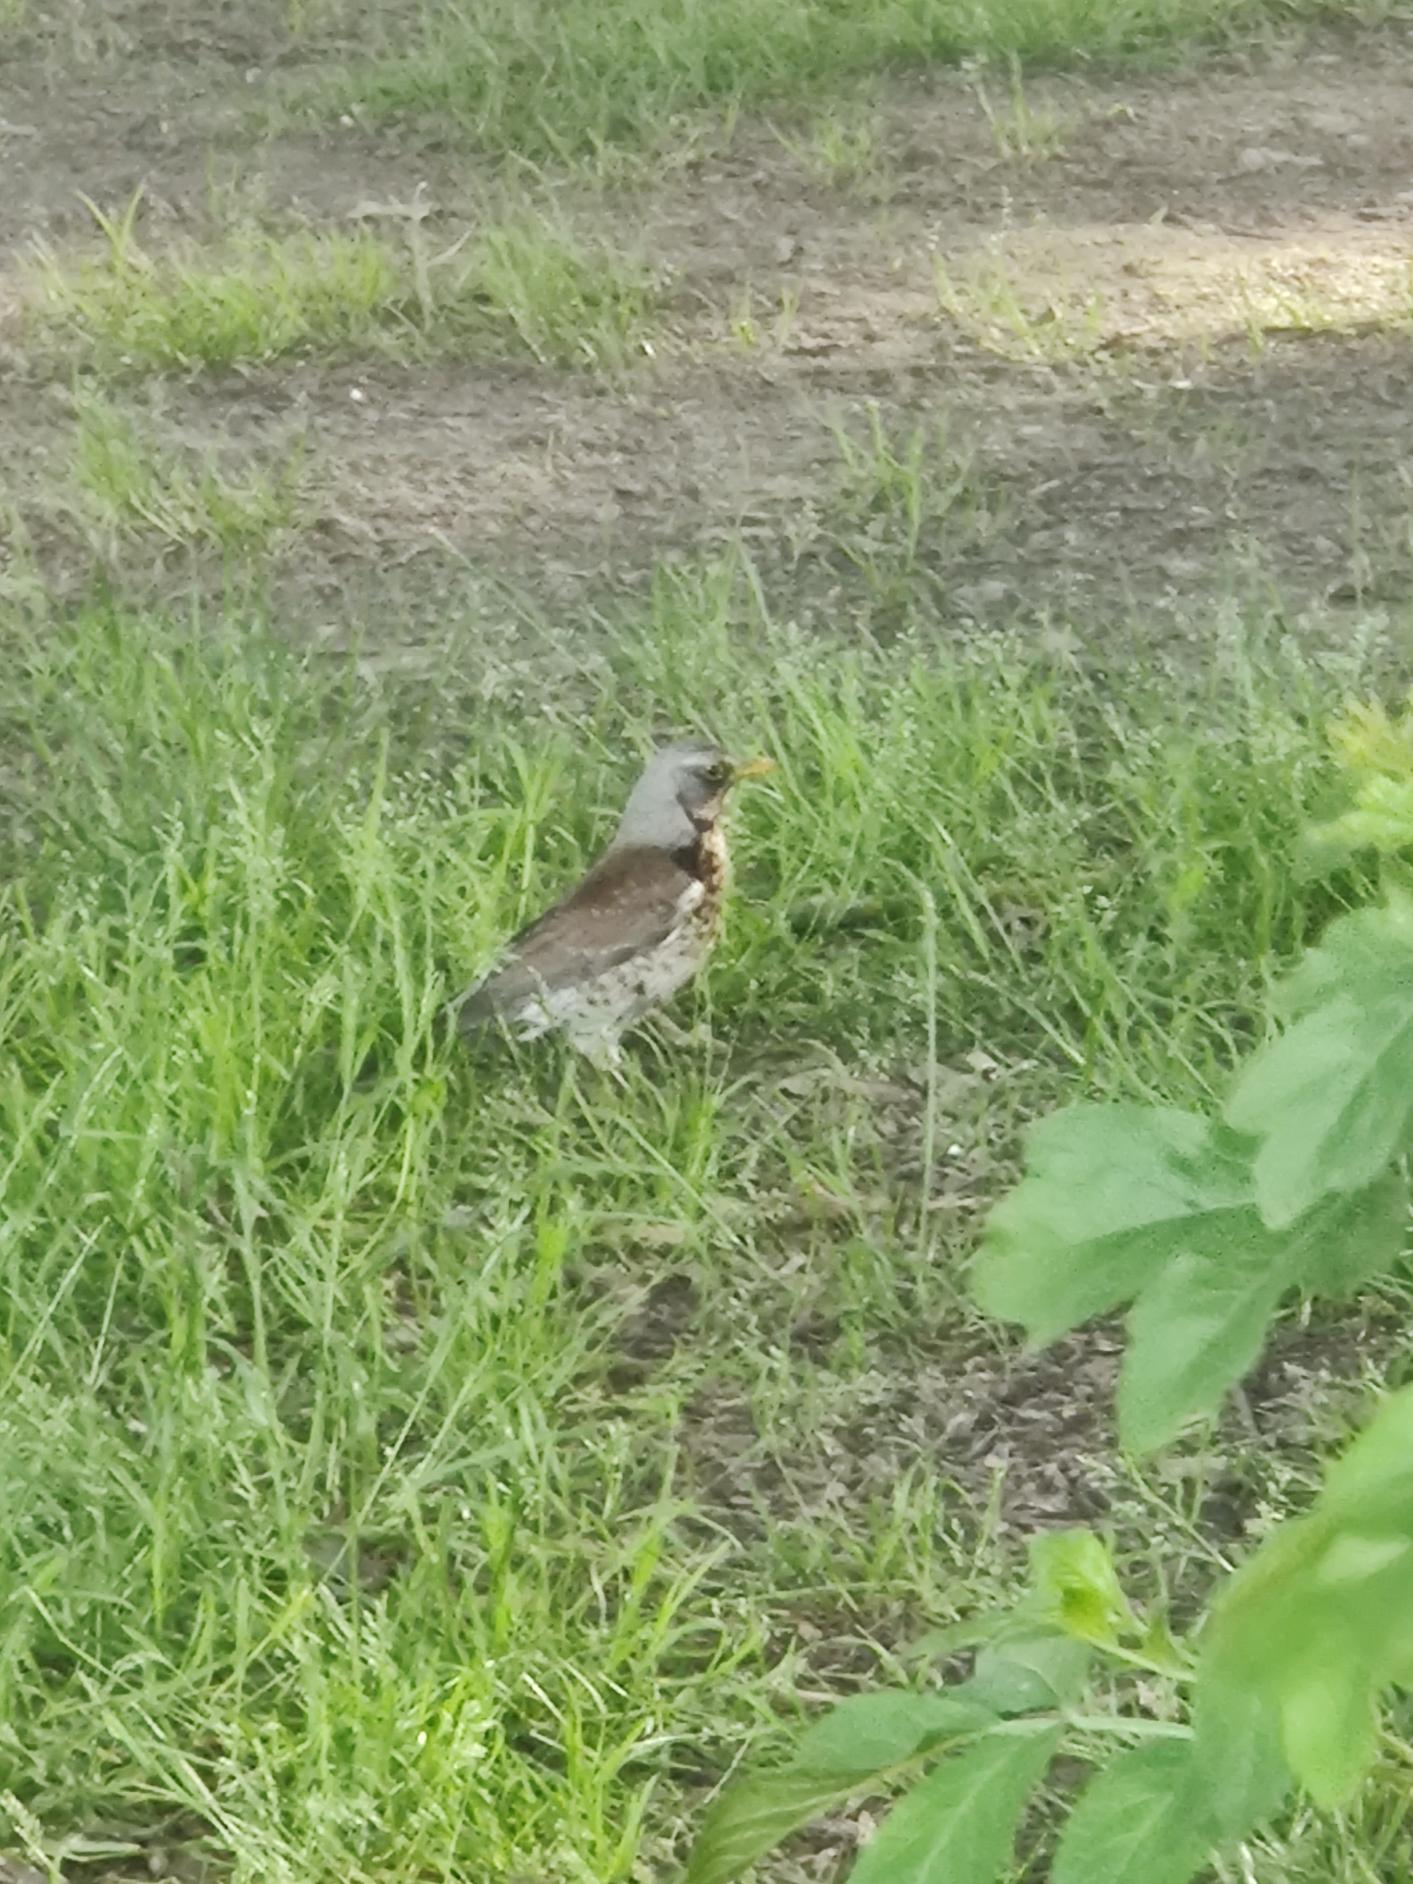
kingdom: Animalia
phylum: Chordata
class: Aves
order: Passeriformes
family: Turdidae
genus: Turdus
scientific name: Turdus pilaris
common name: Sjagger
